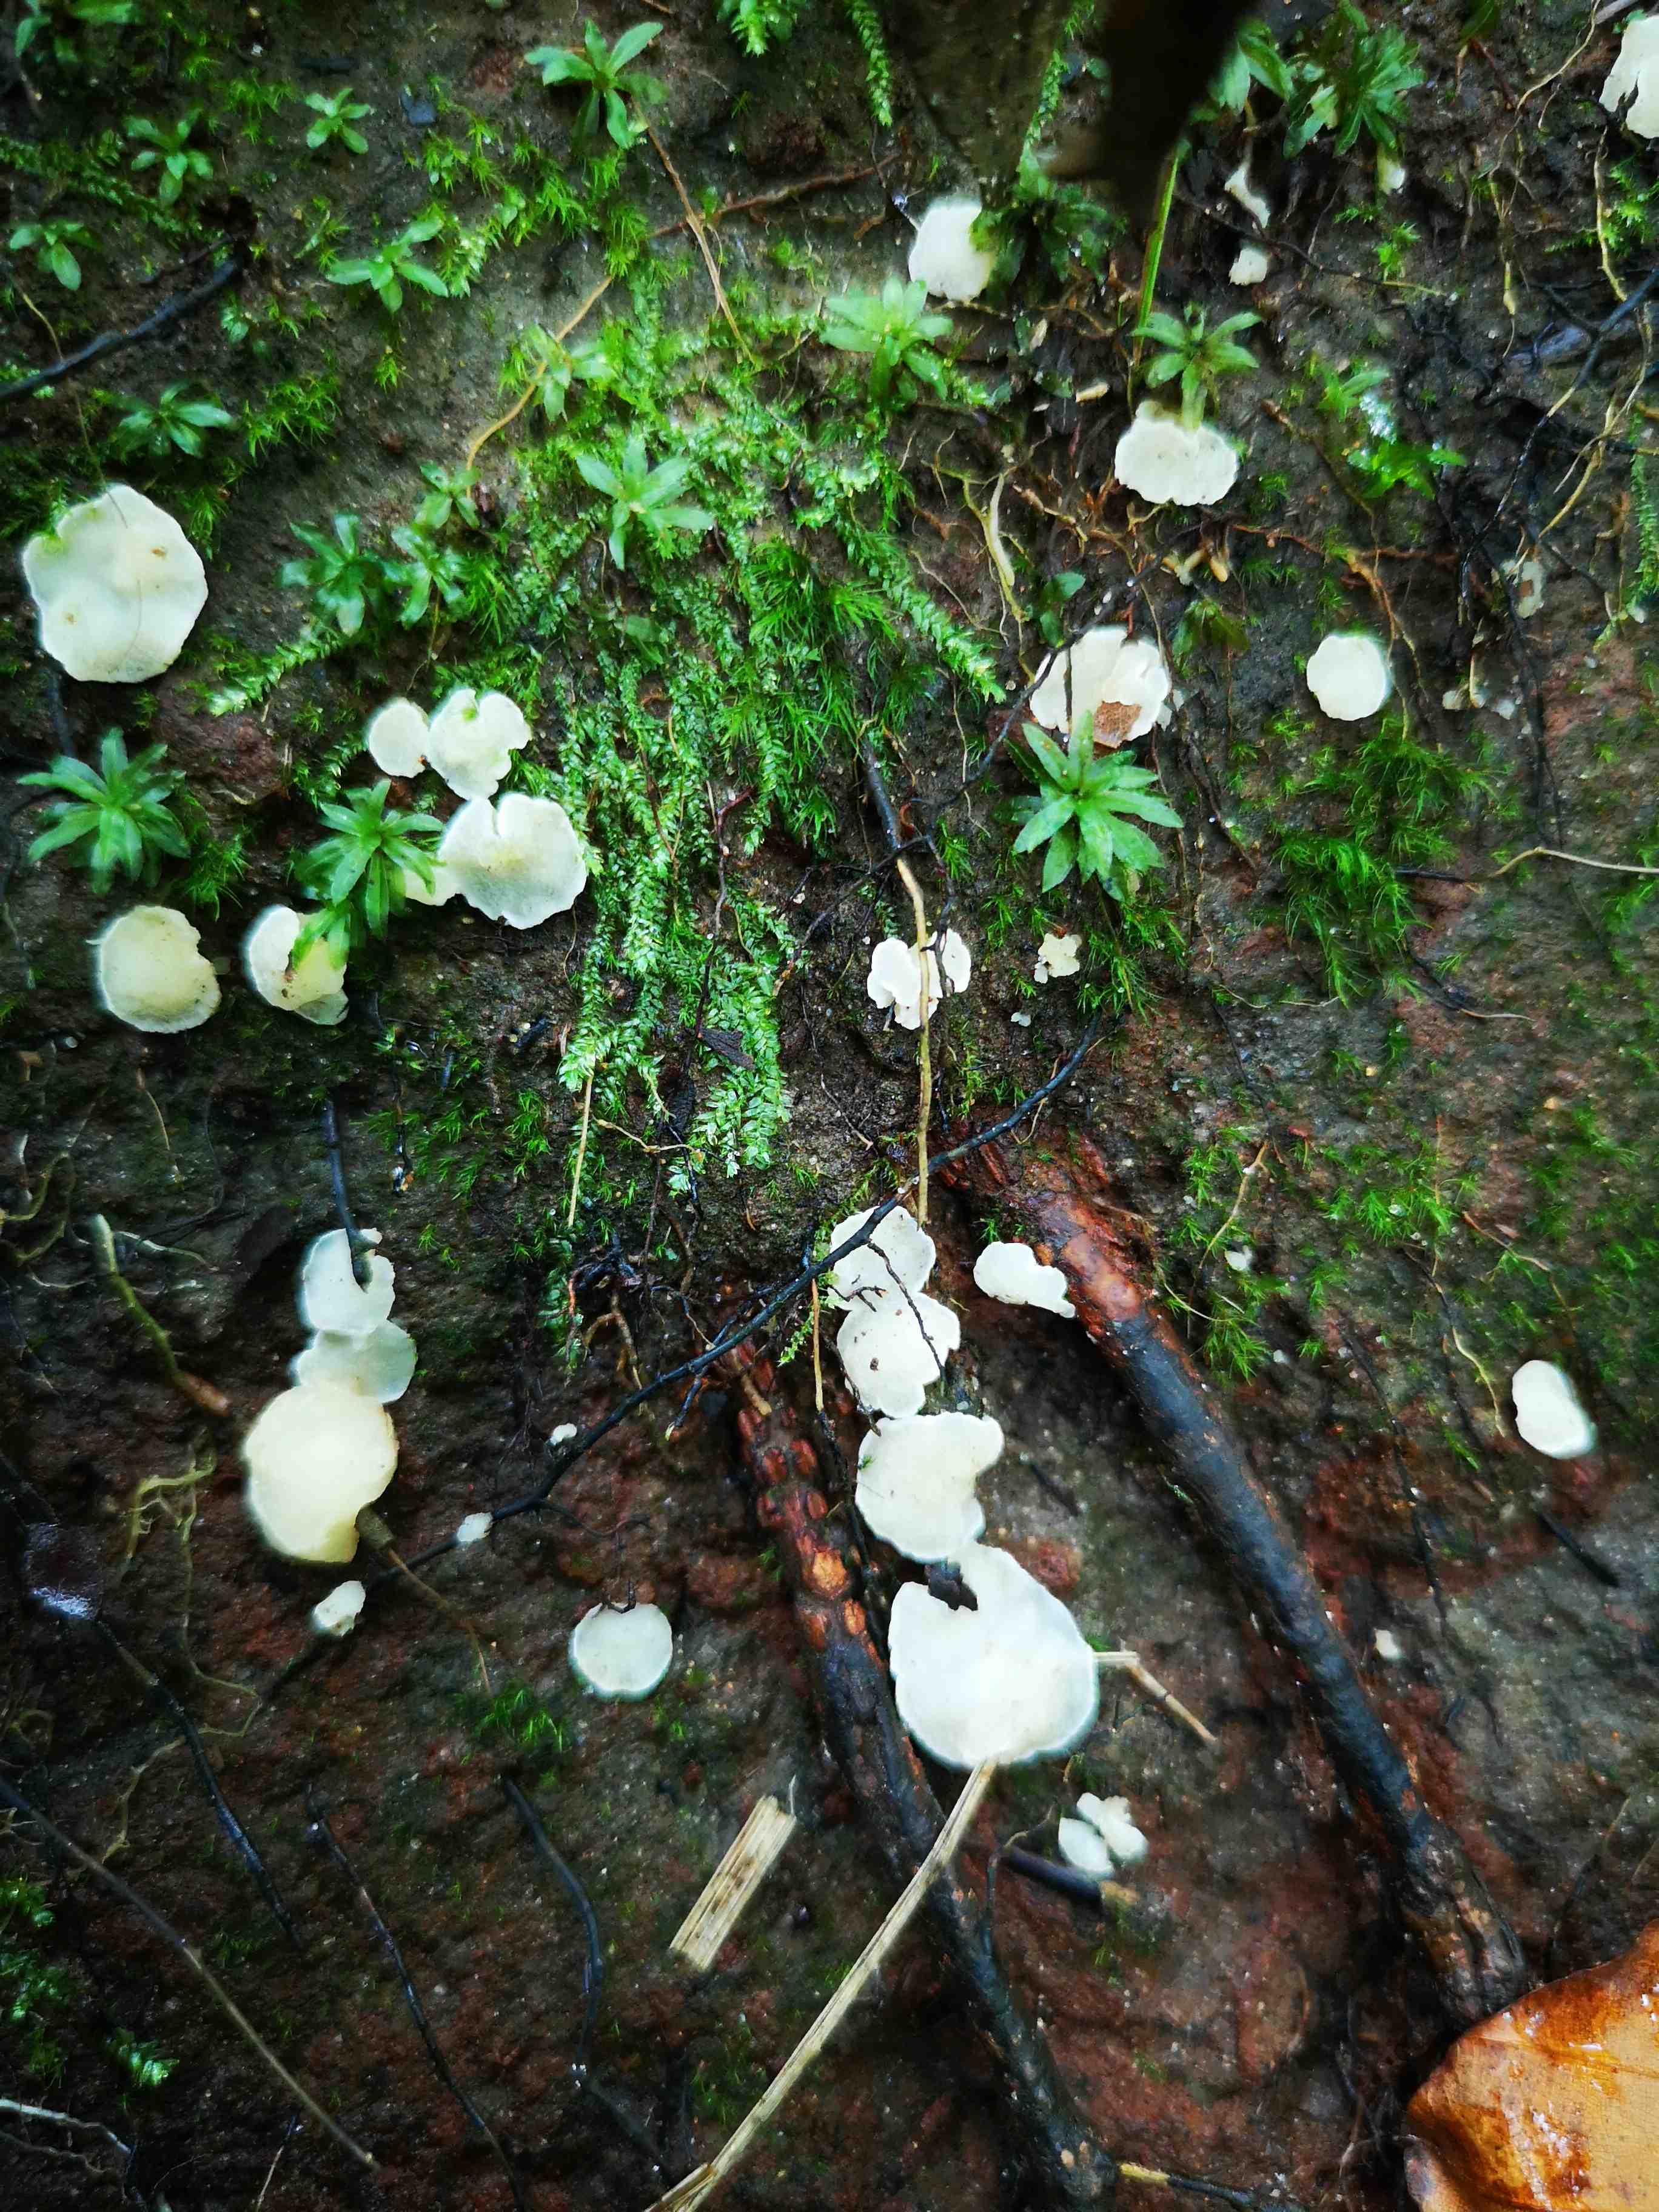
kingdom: Fungi
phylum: Ascomycota
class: Leotiomycetes
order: Helotiales
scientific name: Helotiales
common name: stilkskiveordenen
